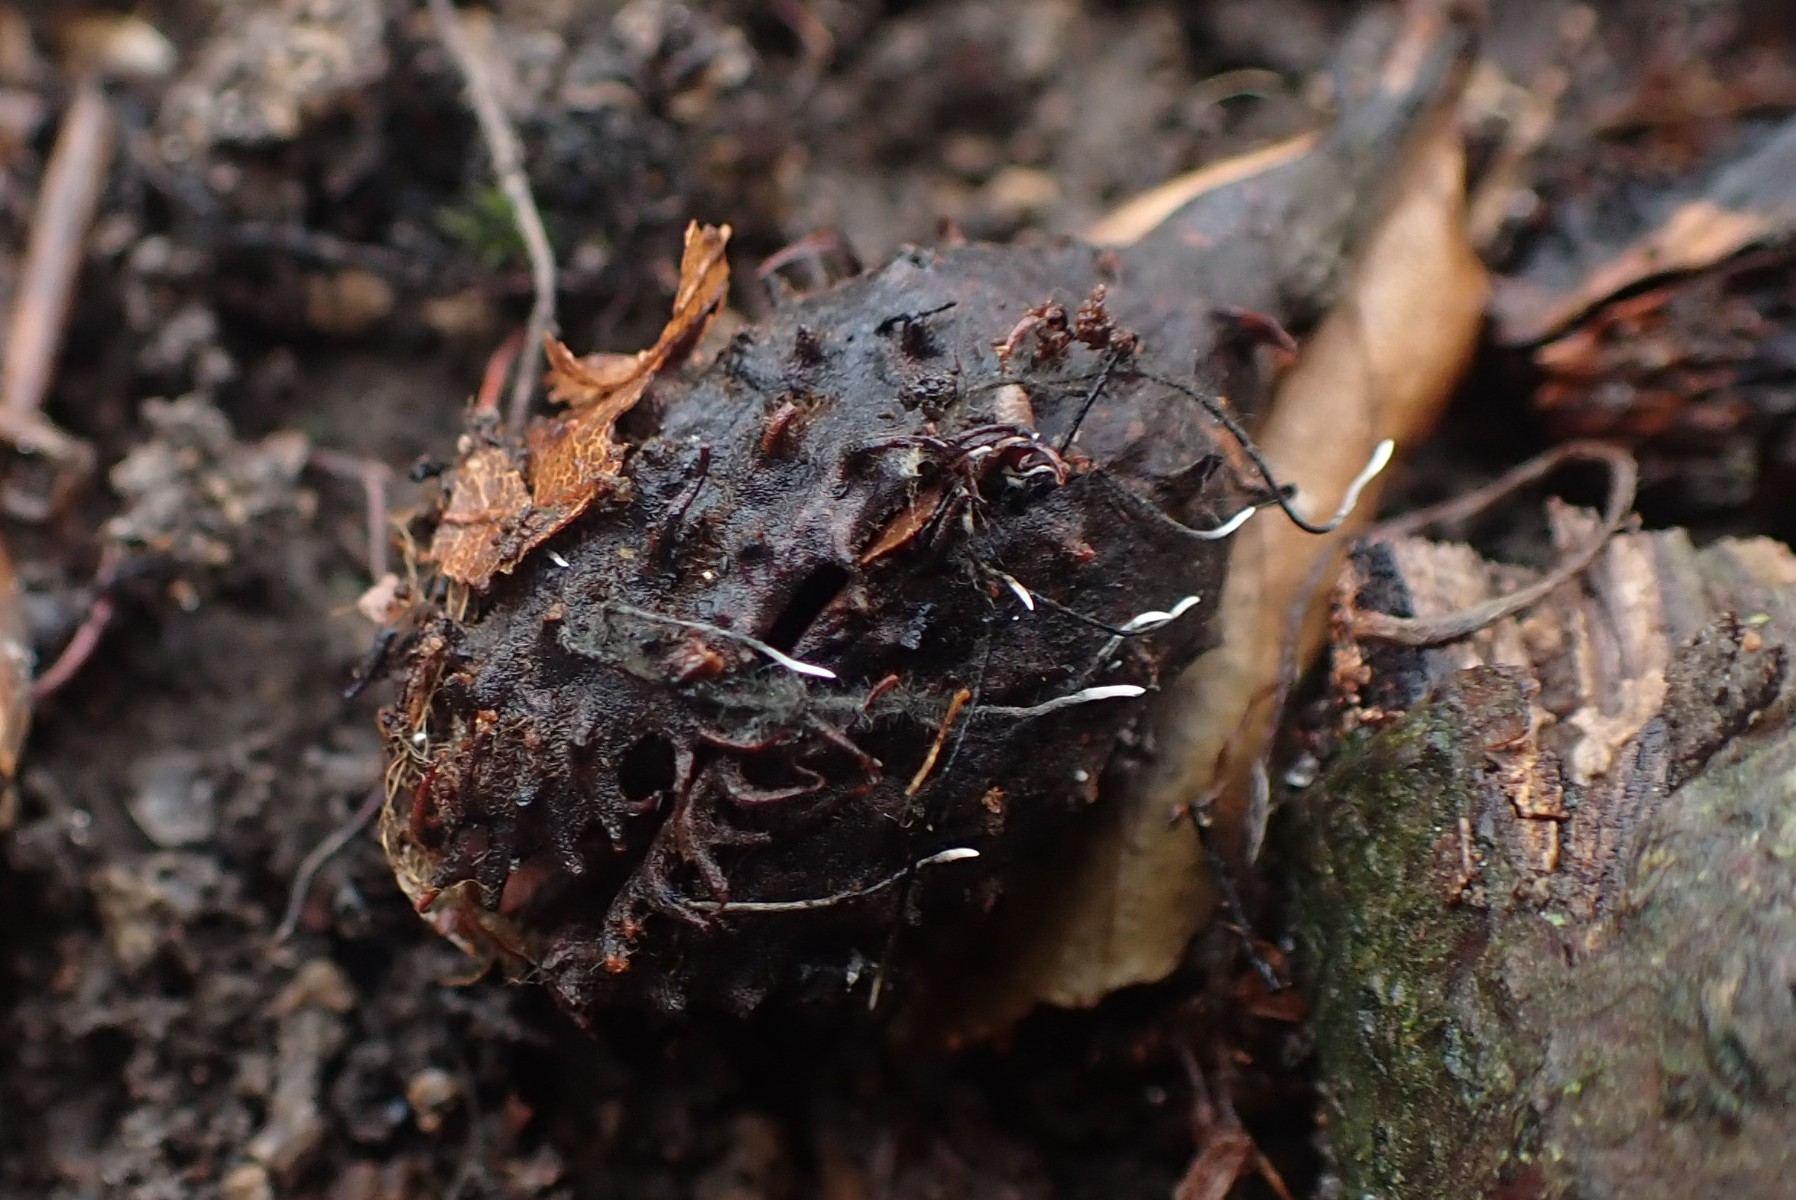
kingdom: Fungi
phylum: Ascomycota
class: Sordariomycetes
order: Xylariales
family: Xylariaceae
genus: Xylaria
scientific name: Xylaria carpophila
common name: bogskål-stødsvamp
